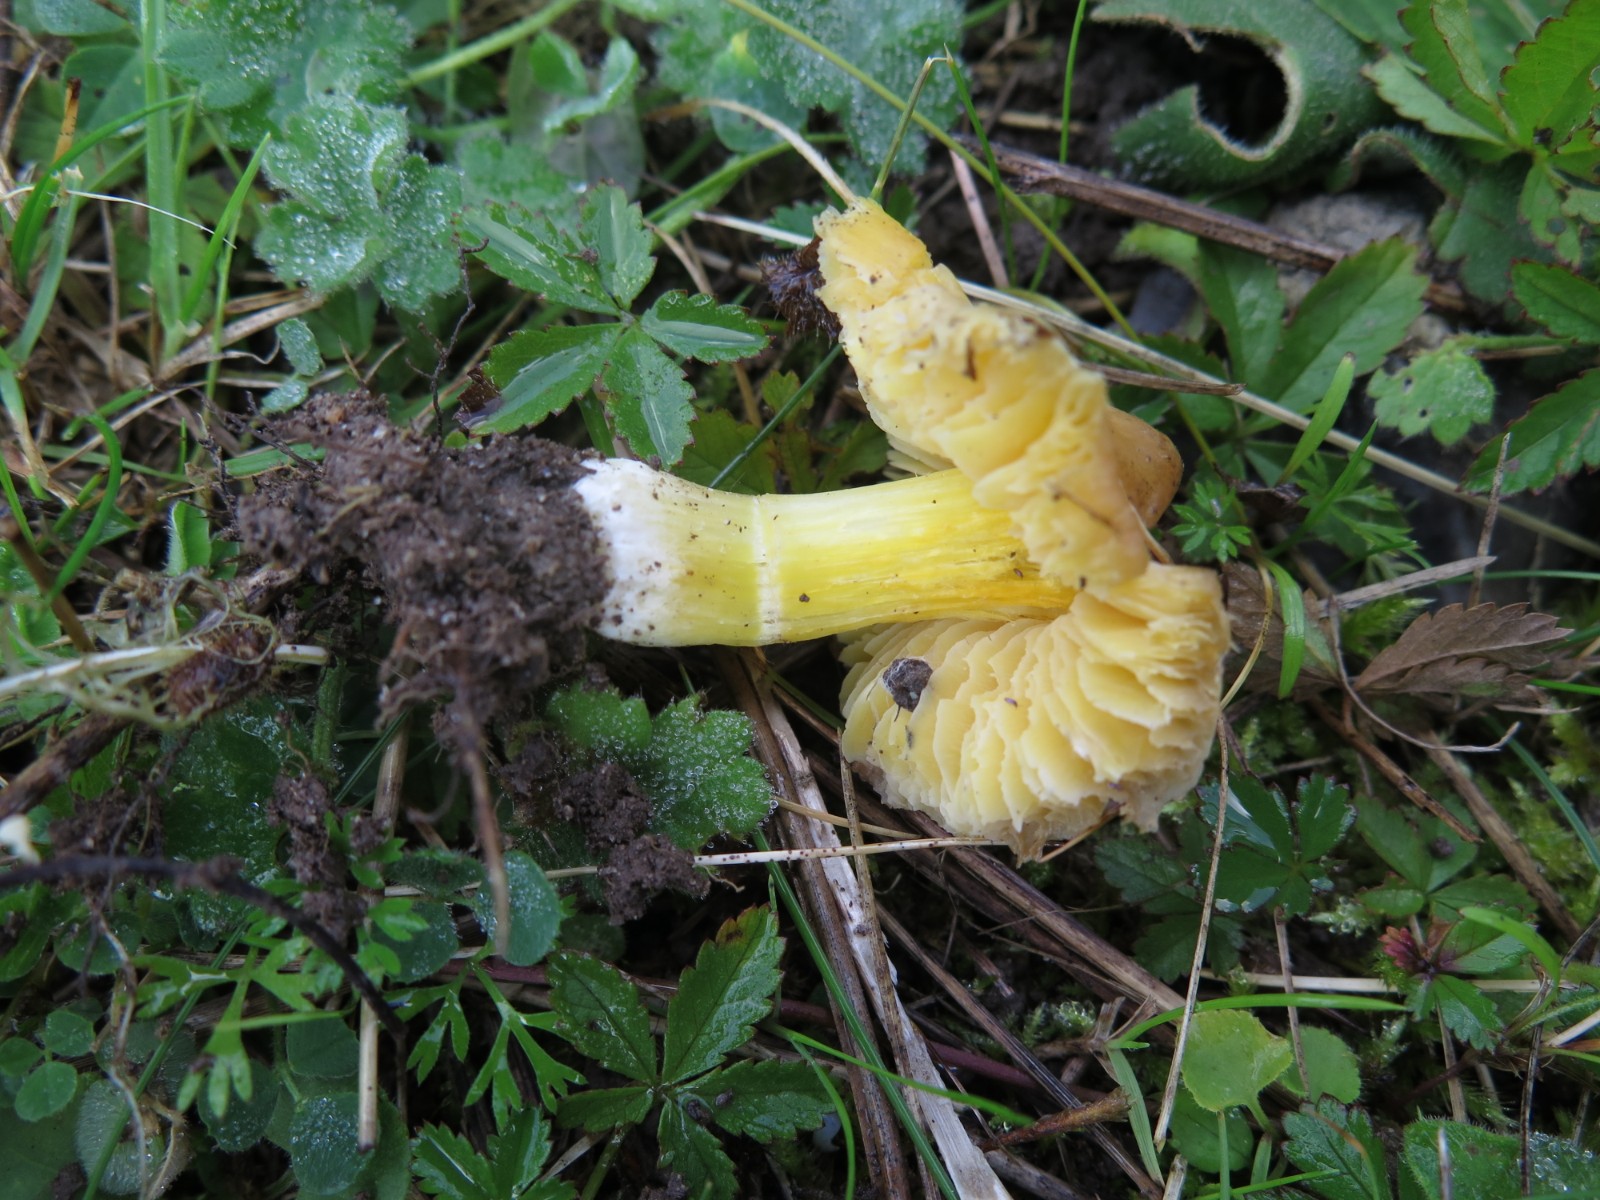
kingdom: Fungi
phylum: Basidiomycota
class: Agaricomycetes
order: Agaricales
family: Hygrophoraceae
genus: Hygrocybe
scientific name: Hygrocybe acutoconica
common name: spidspuklet vokshat
